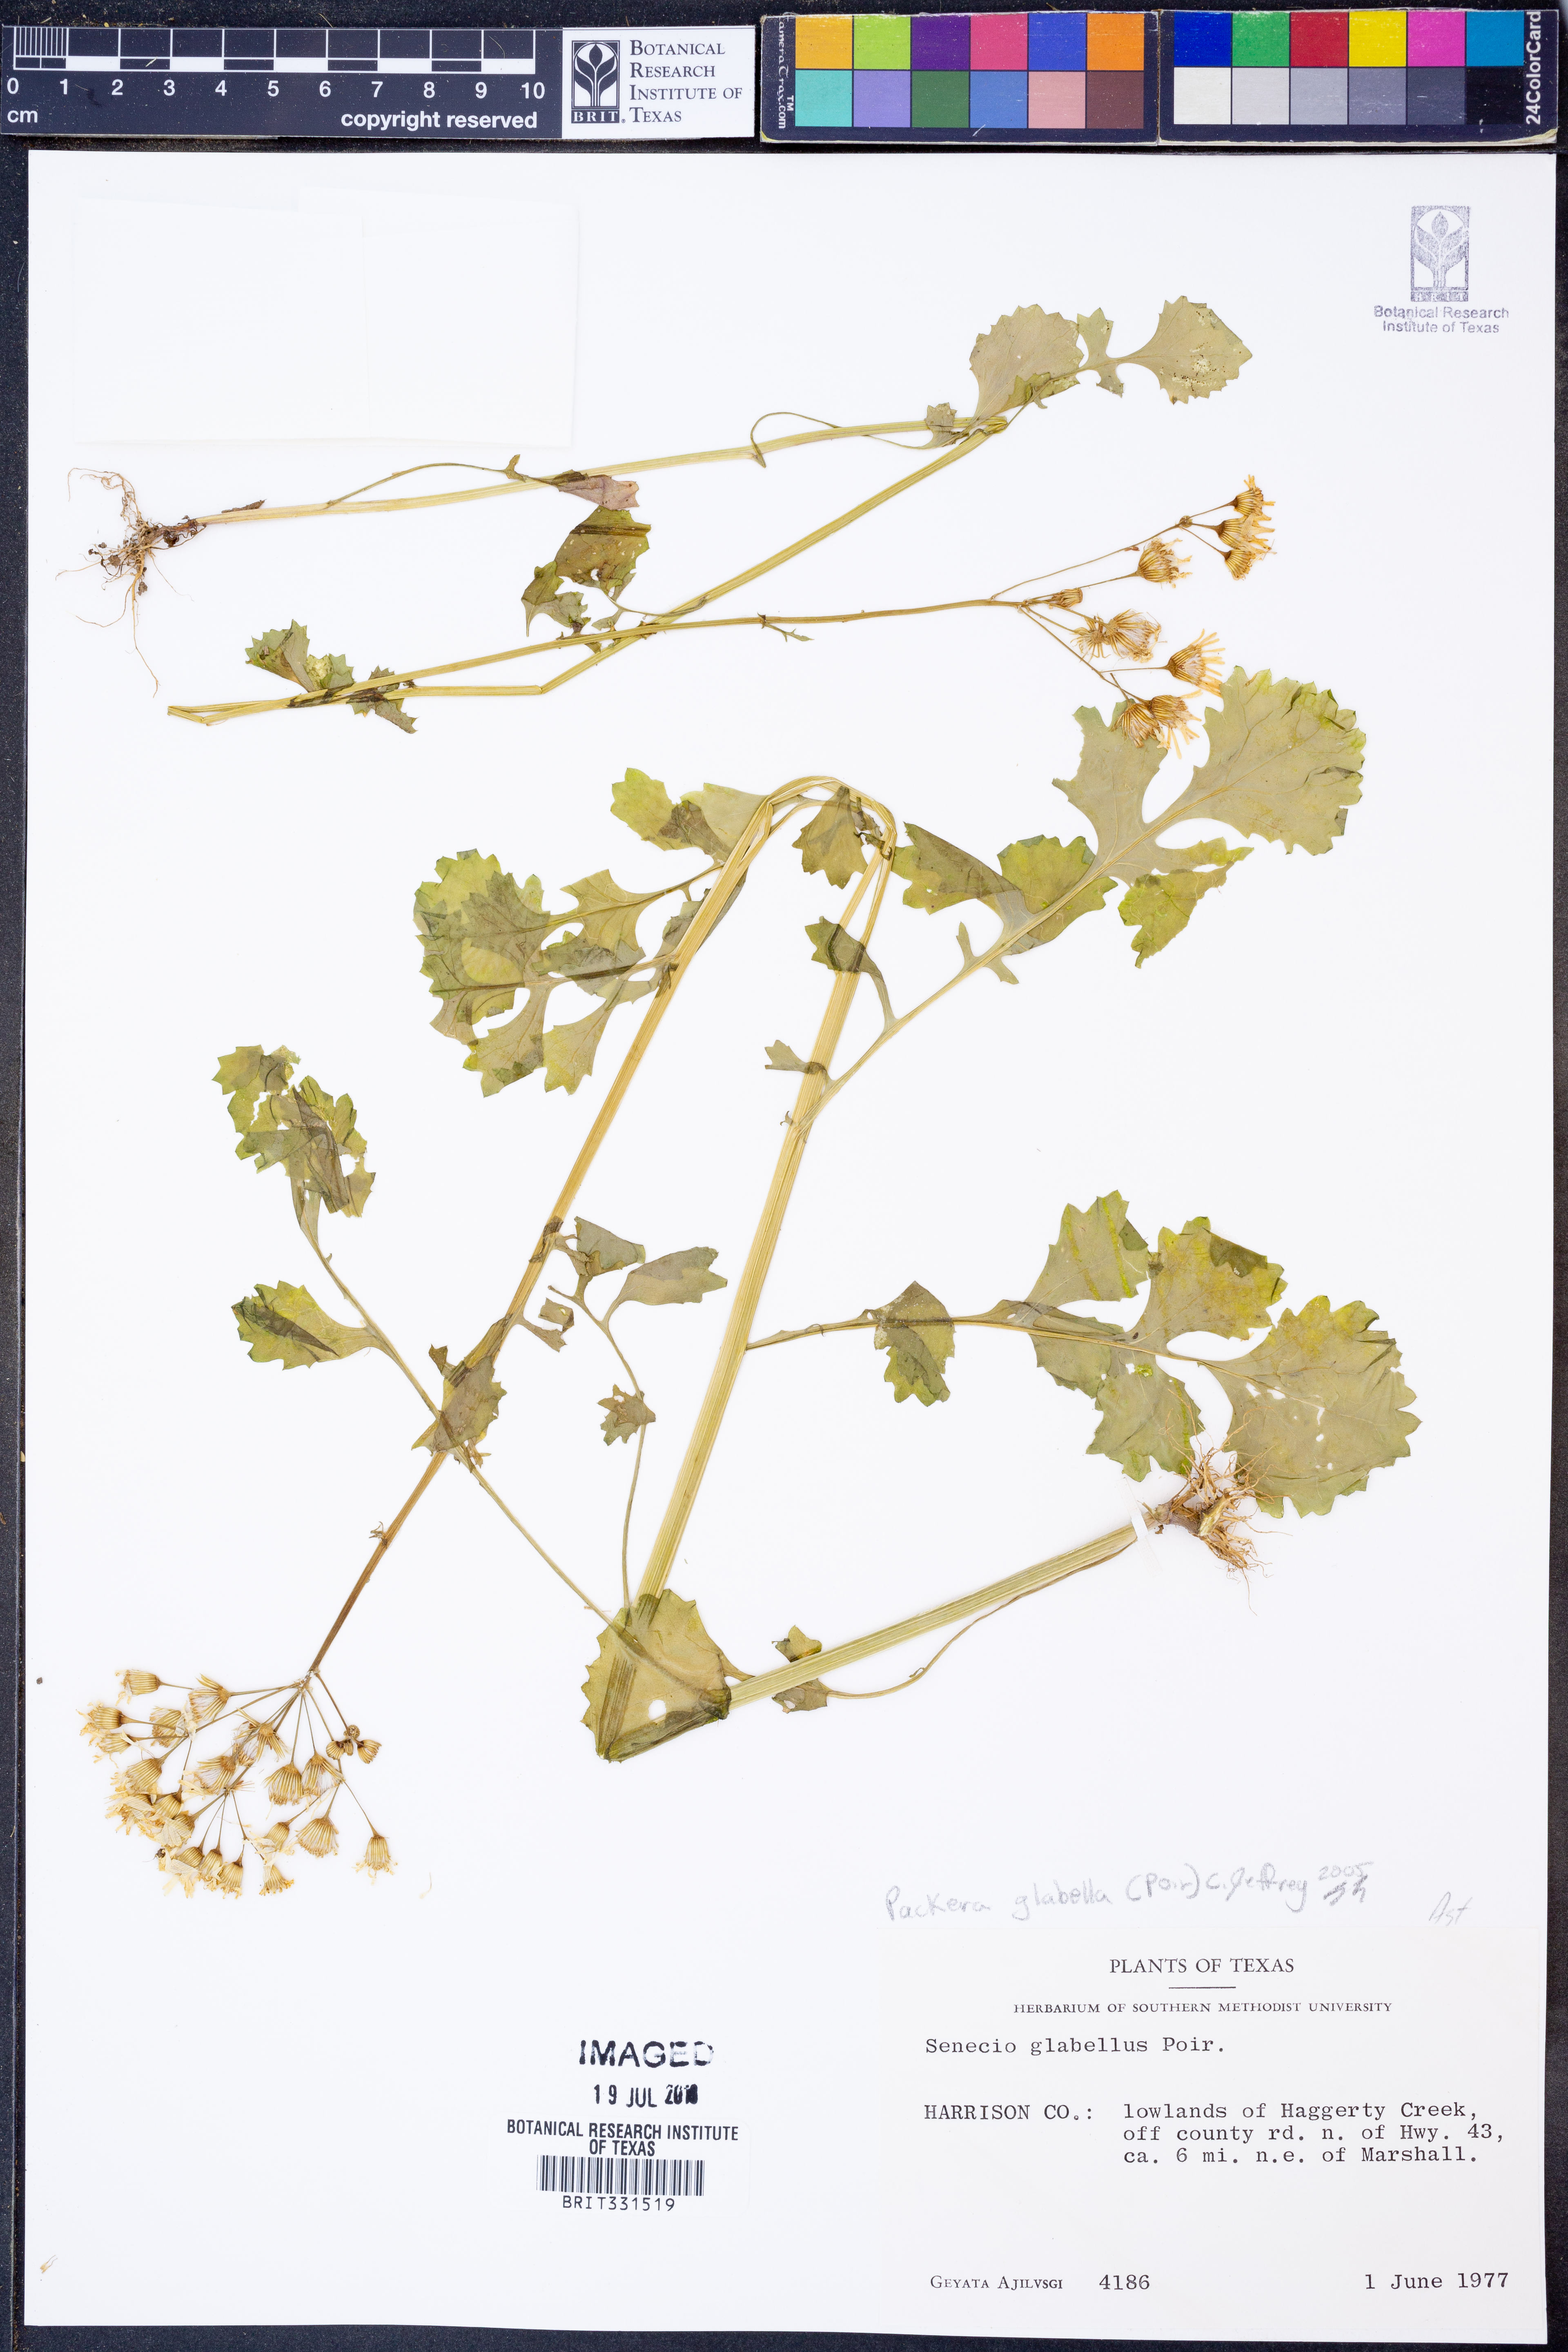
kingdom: Plantae
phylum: Tracheophyta
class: Magnoliopsida
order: Asterales
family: Asteraceae
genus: Packera
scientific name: Packera glabella
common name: Butterweed
